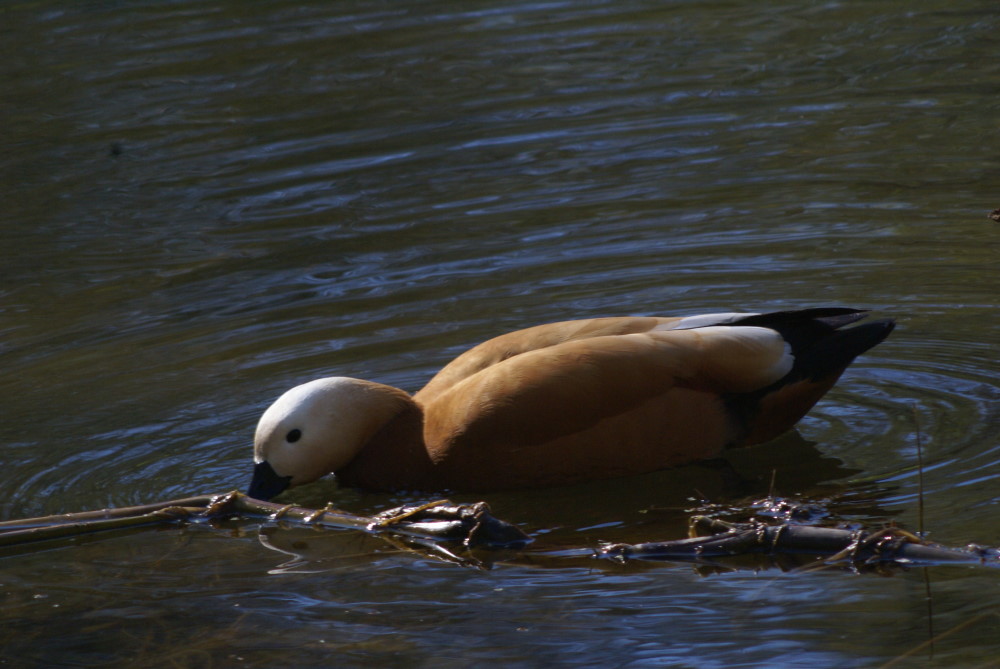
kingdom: Animalia
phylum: Chordata
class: Aves
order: Anseriformes
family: Anatidae
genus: Tadorna
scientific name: Tadorna ferruginea
